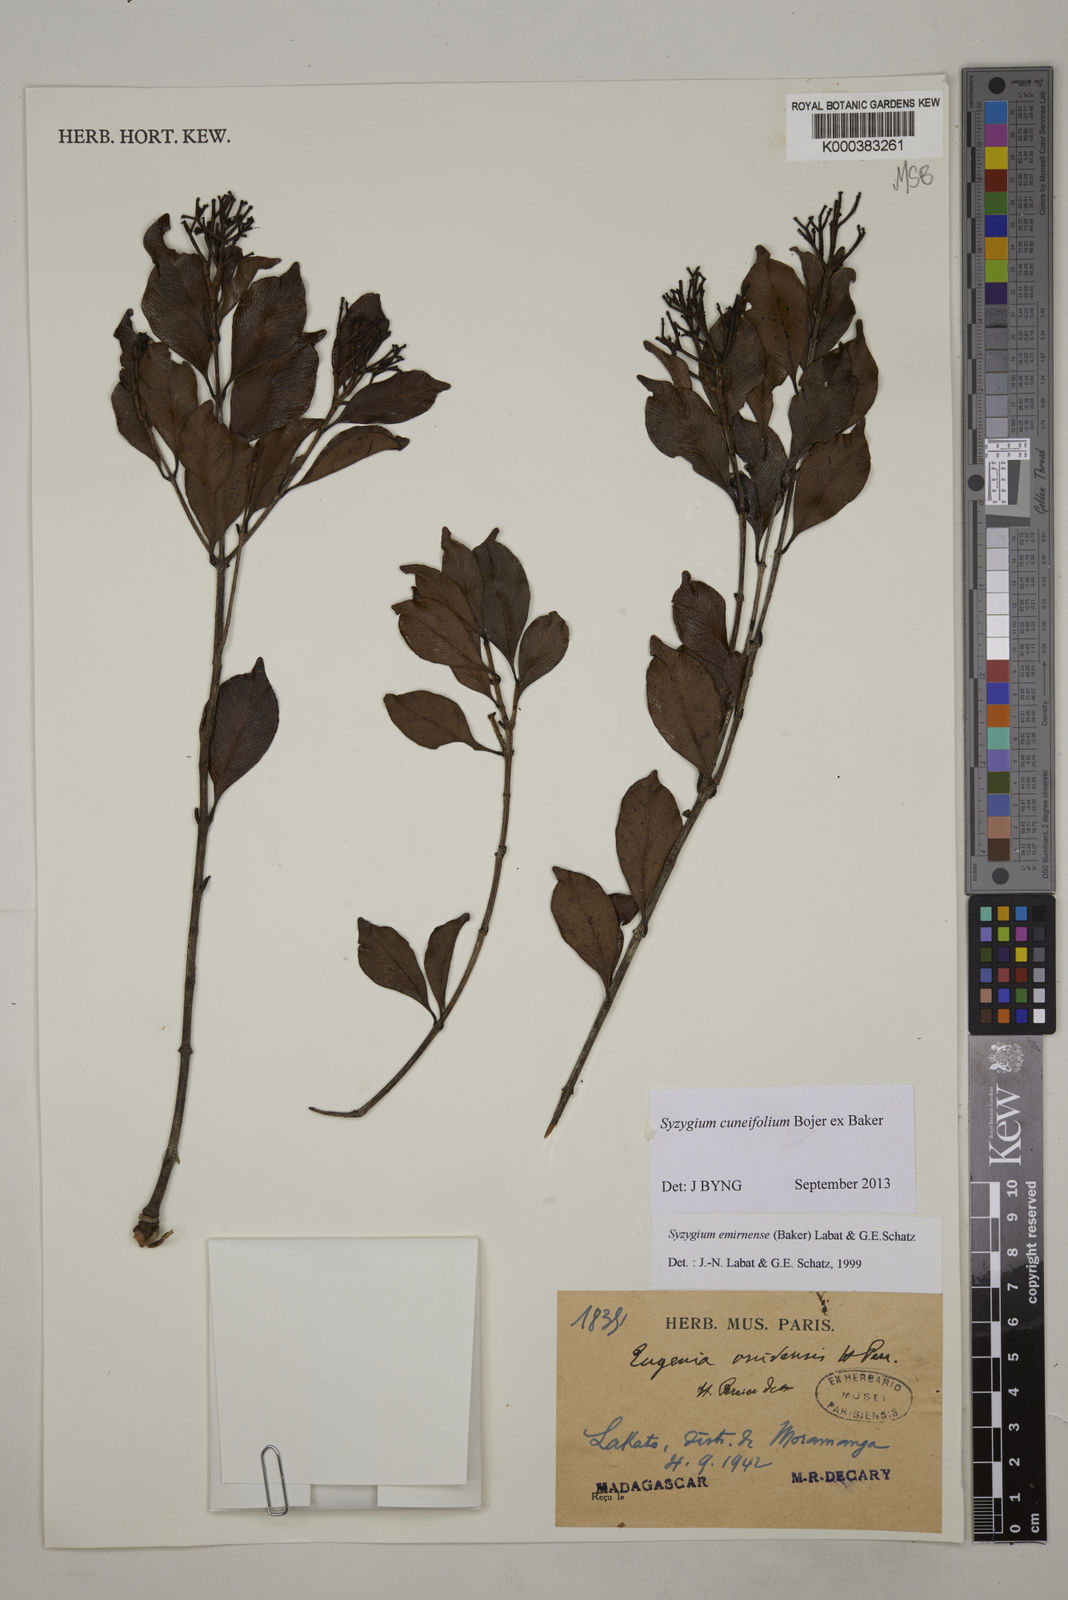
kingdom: Plantae
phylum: Tracheophyta
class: Magnoliopsida
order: Myrtales
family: Myrtaceae
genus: Syzygium
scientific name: Syzygium emirnense
